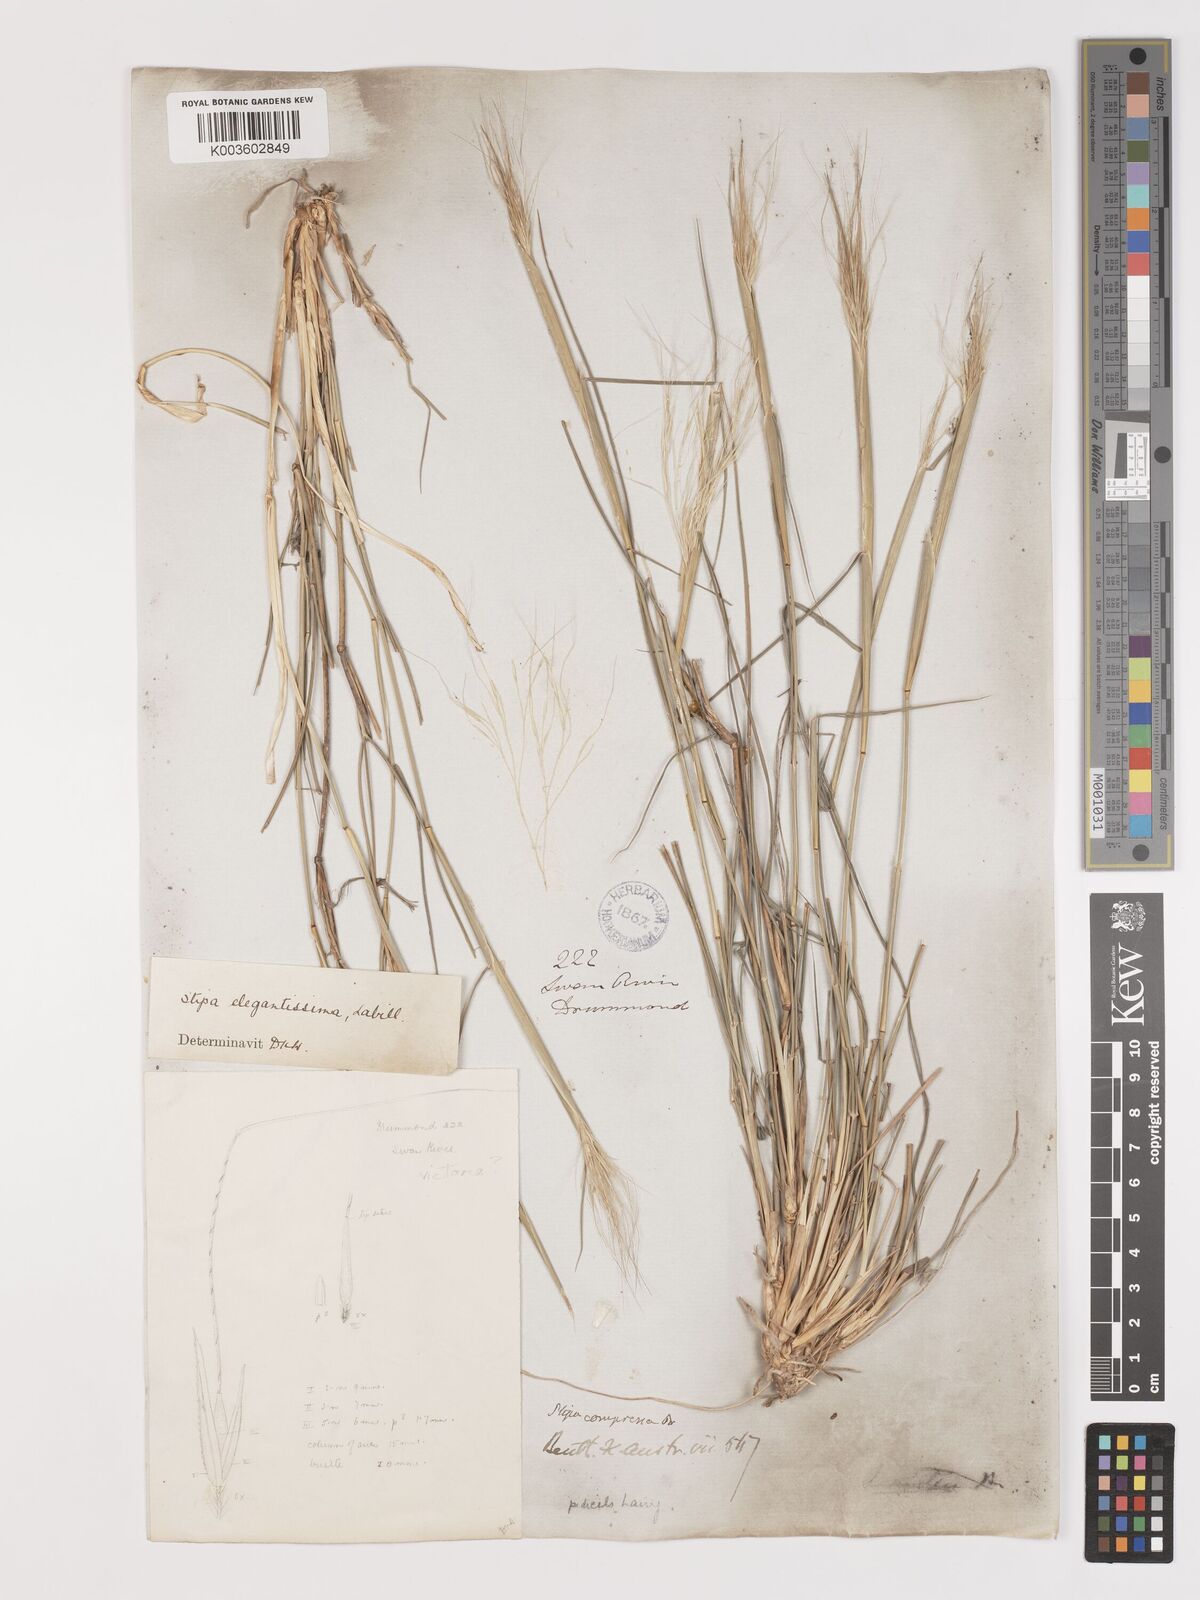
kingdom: Plantae
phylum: Tracheophyta
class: Liliopsida
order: Poales
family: Poaceae
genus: Austrostipa
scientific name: Austrostipa elegantissima
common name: Feather spear grass
